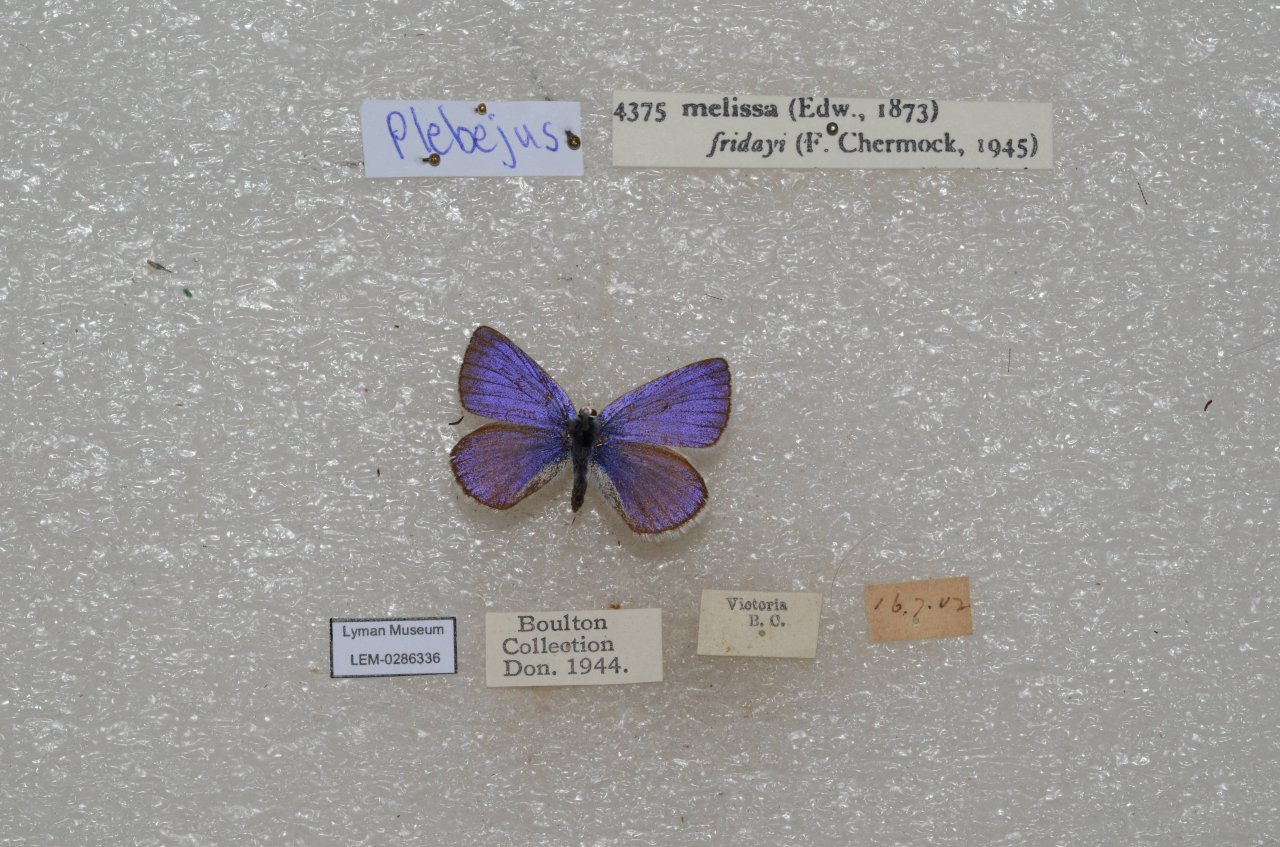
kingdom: Animalia
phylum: Arthropoda
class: Insecta
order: Lepidoptera
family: Lycaenidae
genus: Lycaeides
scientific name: Lycaeides melissa
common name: Melissa Blue
